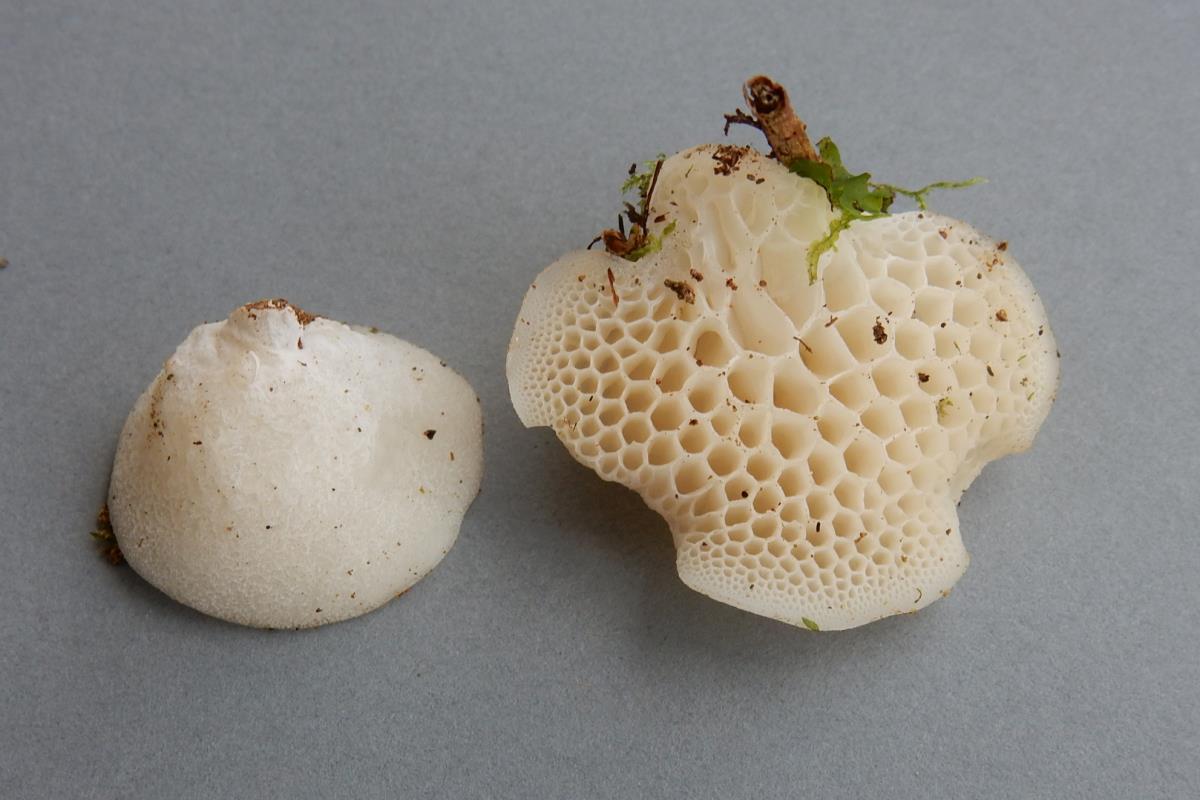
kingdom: Fungi
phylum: Basidiomycota
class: Agaricomycetes
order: Agaricales
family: Mycenaceae
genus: Favolaschia
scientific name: Favolaschia pustulosa
